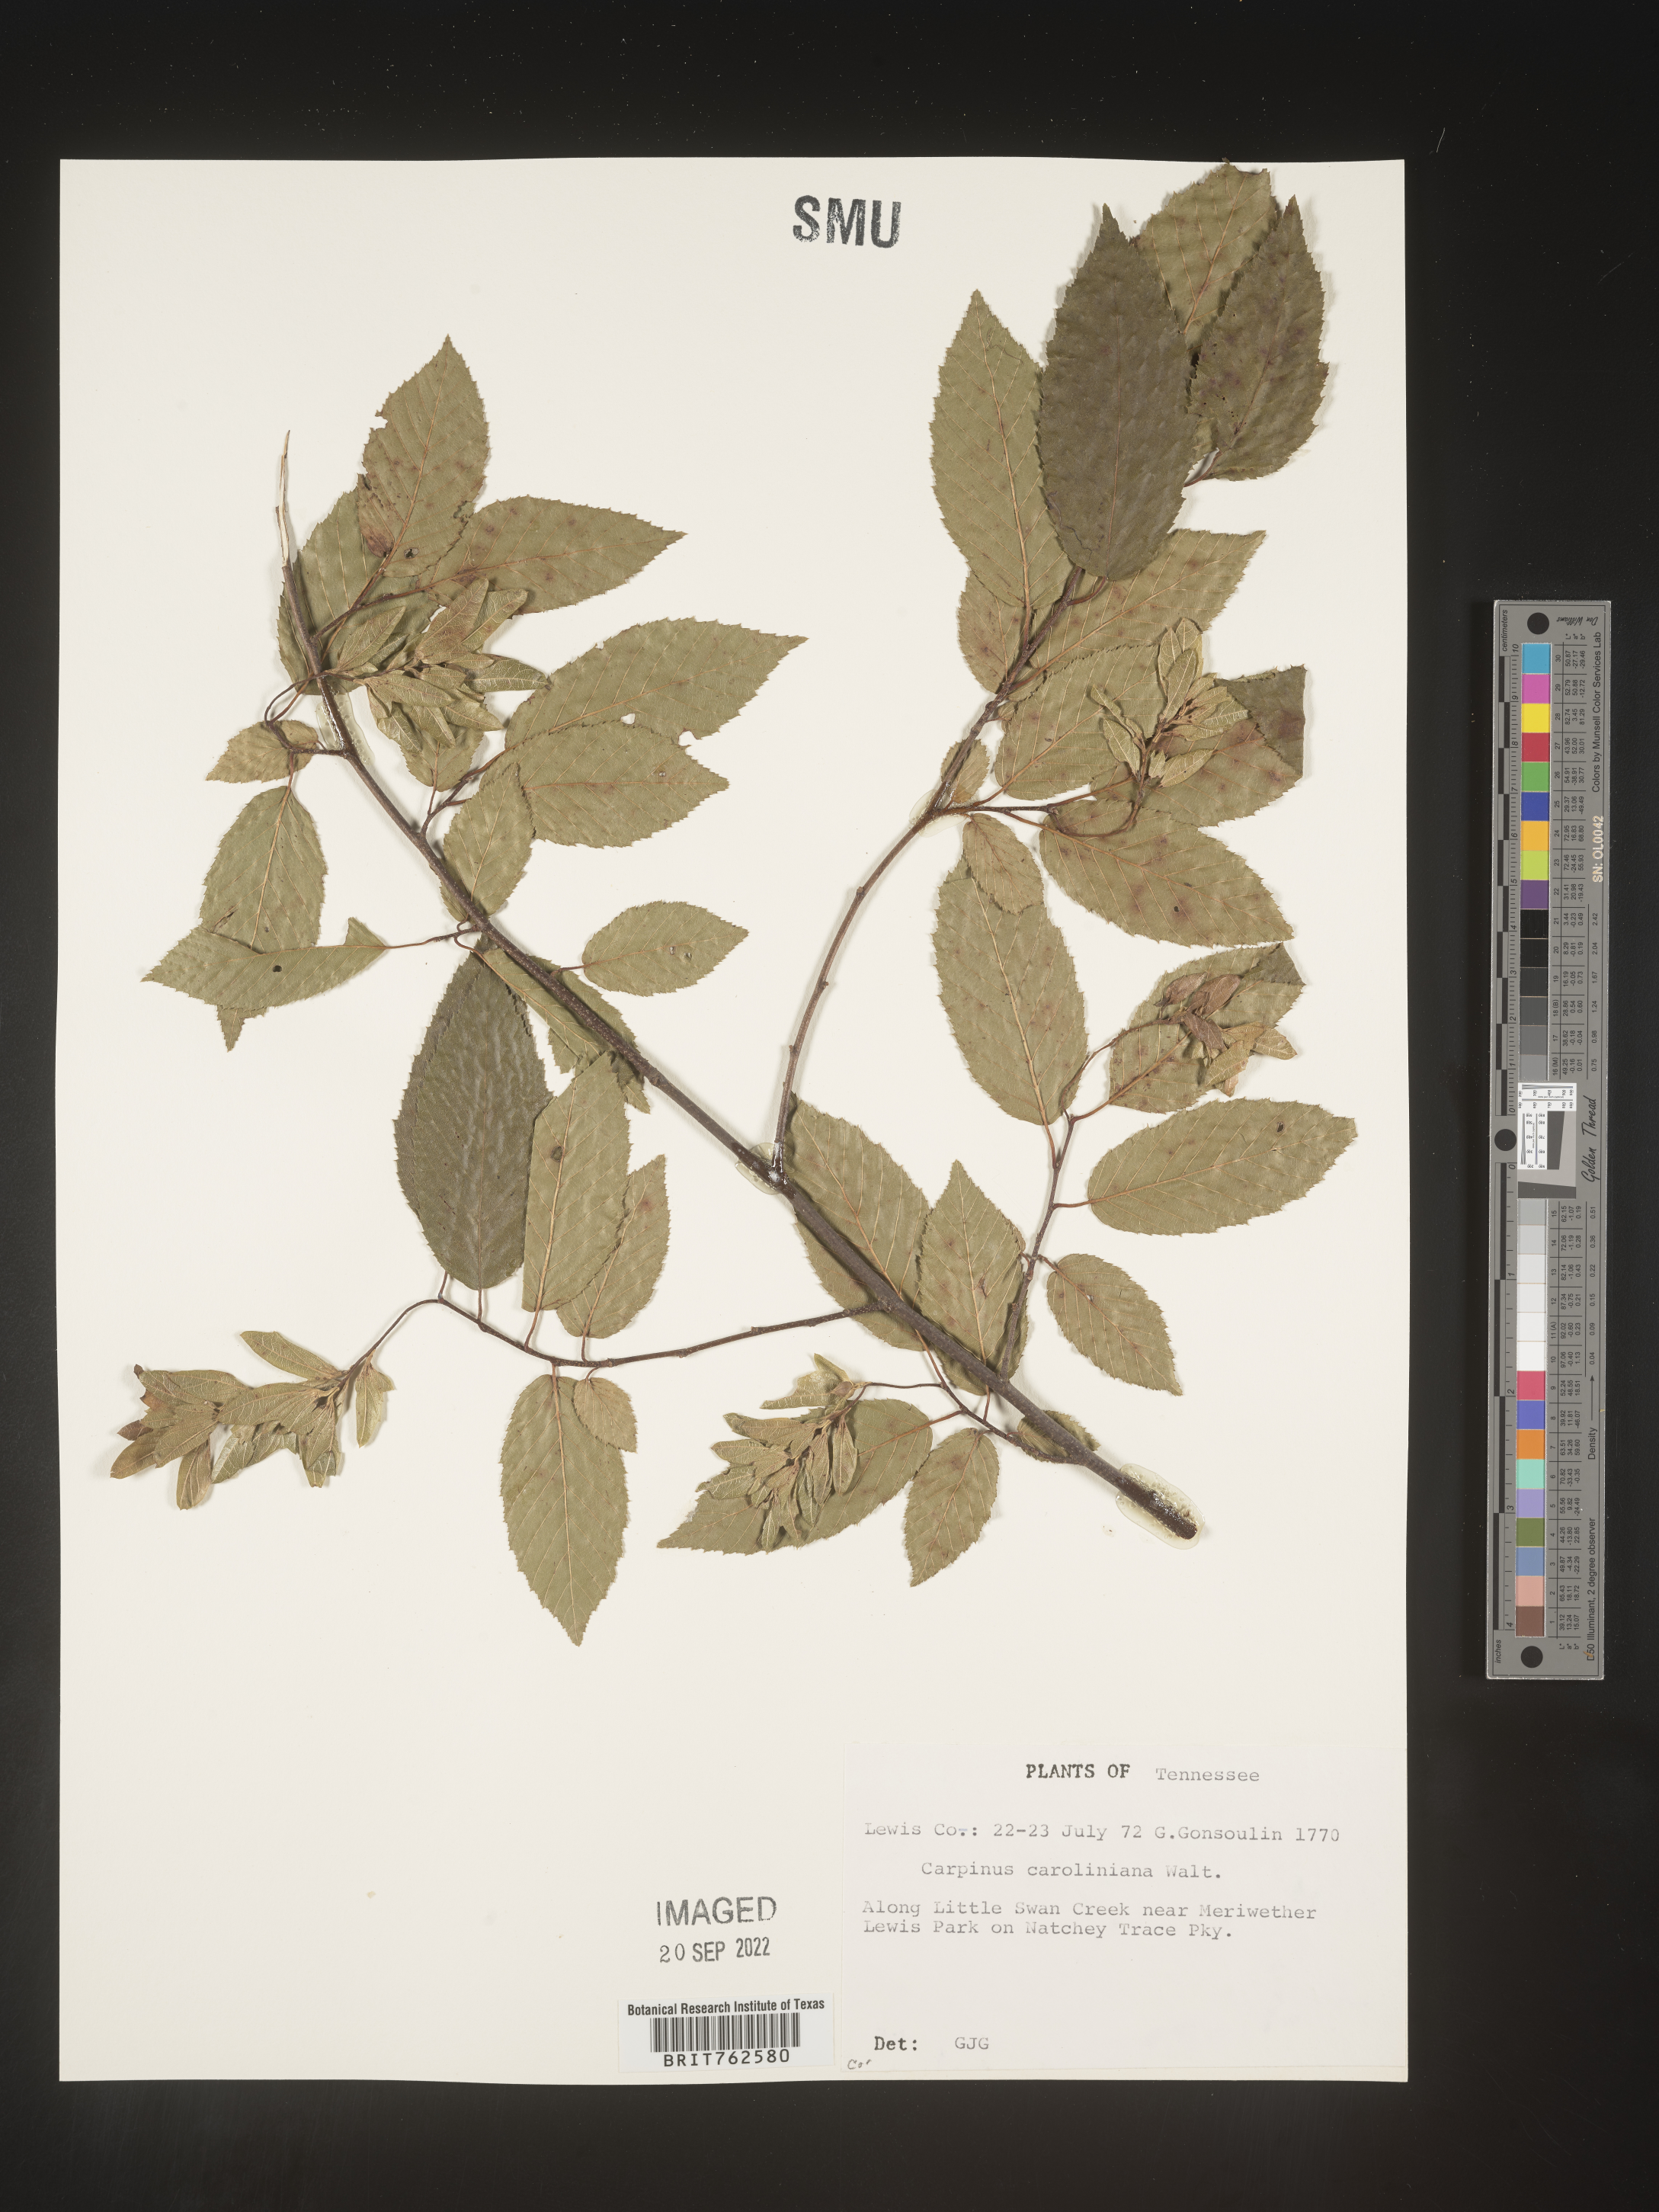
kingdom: Plantae
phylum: Tracheophyta
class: Magnoliopsida
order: Fagales
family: Betulaceae
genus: Carpinus
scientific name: Carpinus caroliniana
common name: American hornbeam
